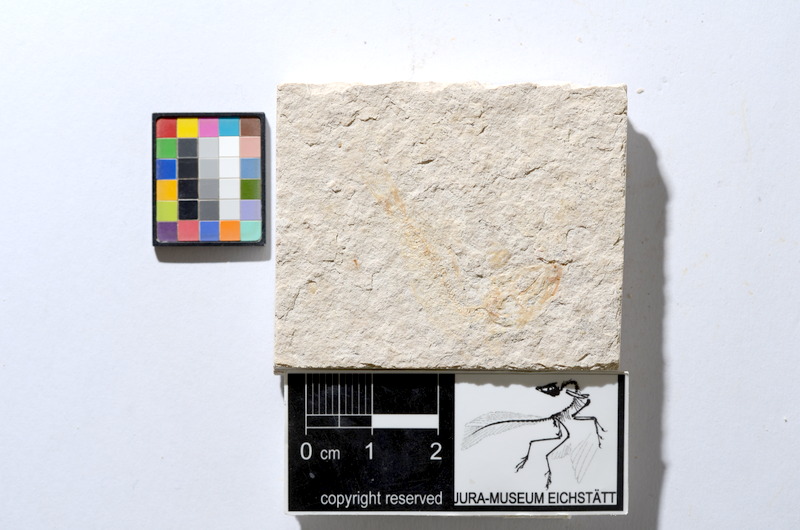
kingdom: Animalia
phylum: Chordata
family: Ascalaboidae
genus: Tharsis
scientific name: Tharsis dubius
